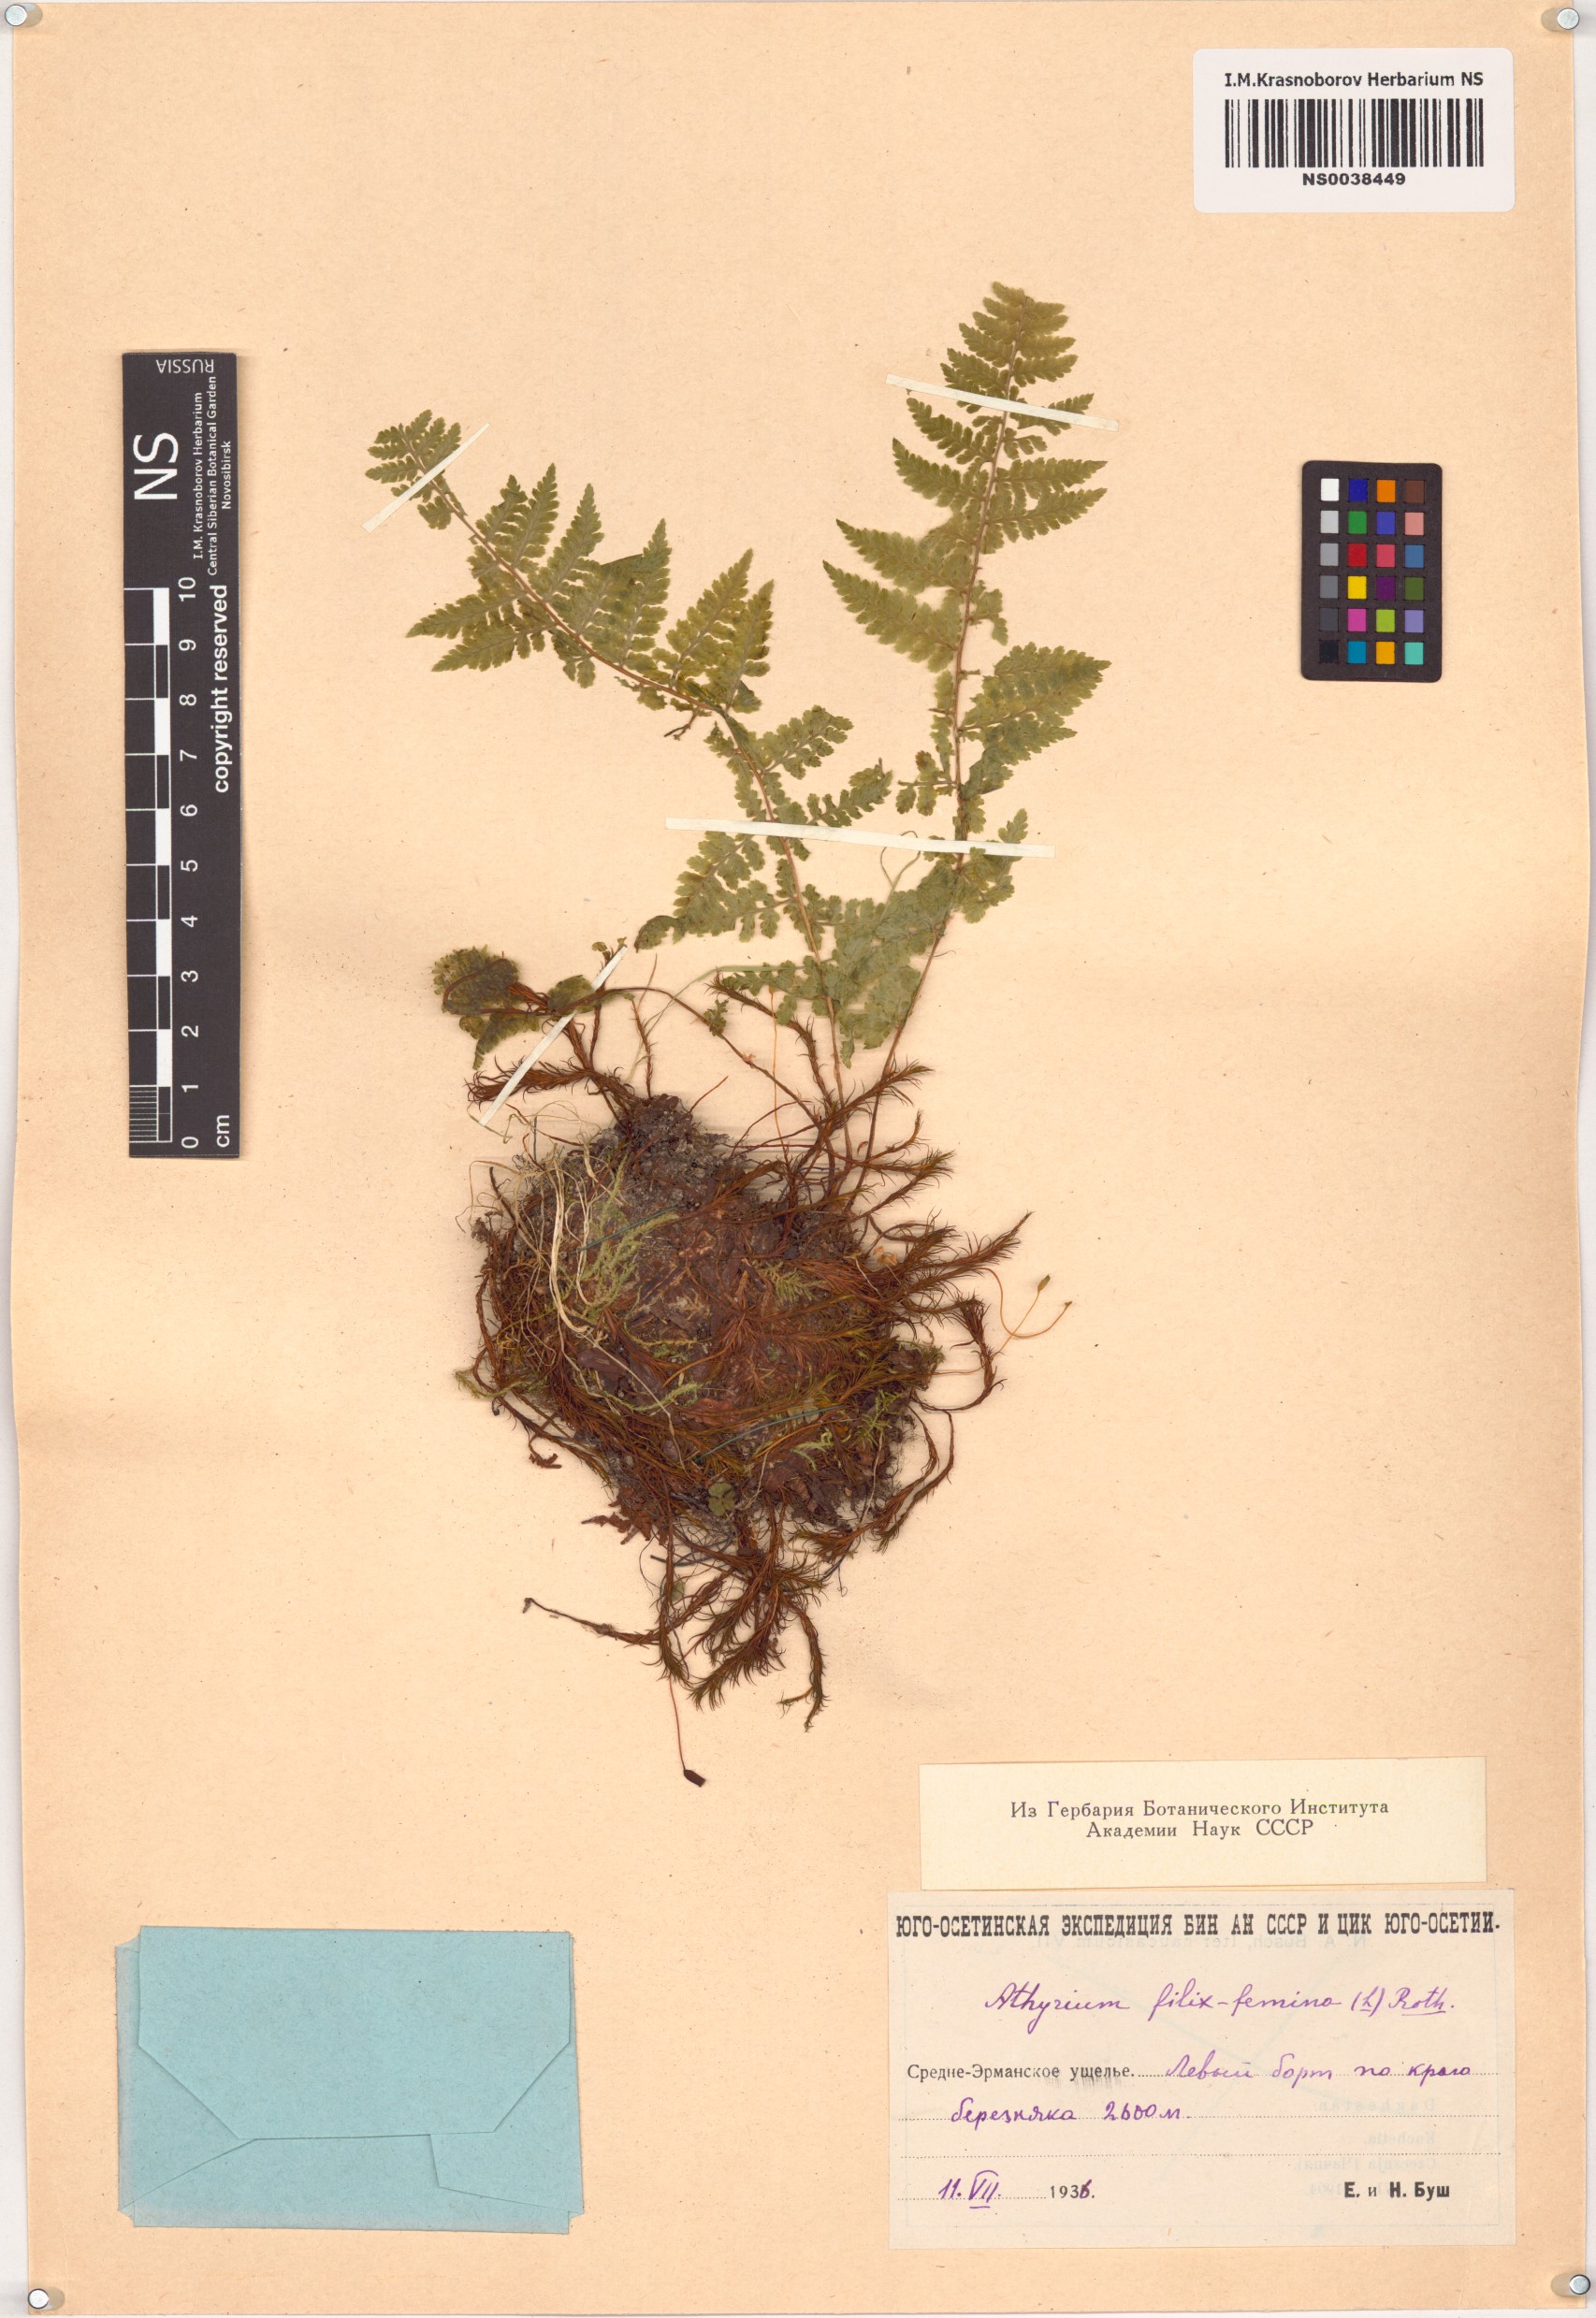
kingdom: Plantae
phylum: Tracheophyta
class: Polypodiopsida
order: Polypodiales
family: Athyriaceae
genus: Athyrium
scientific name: Athyrium filix-femina
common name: Lady fern
